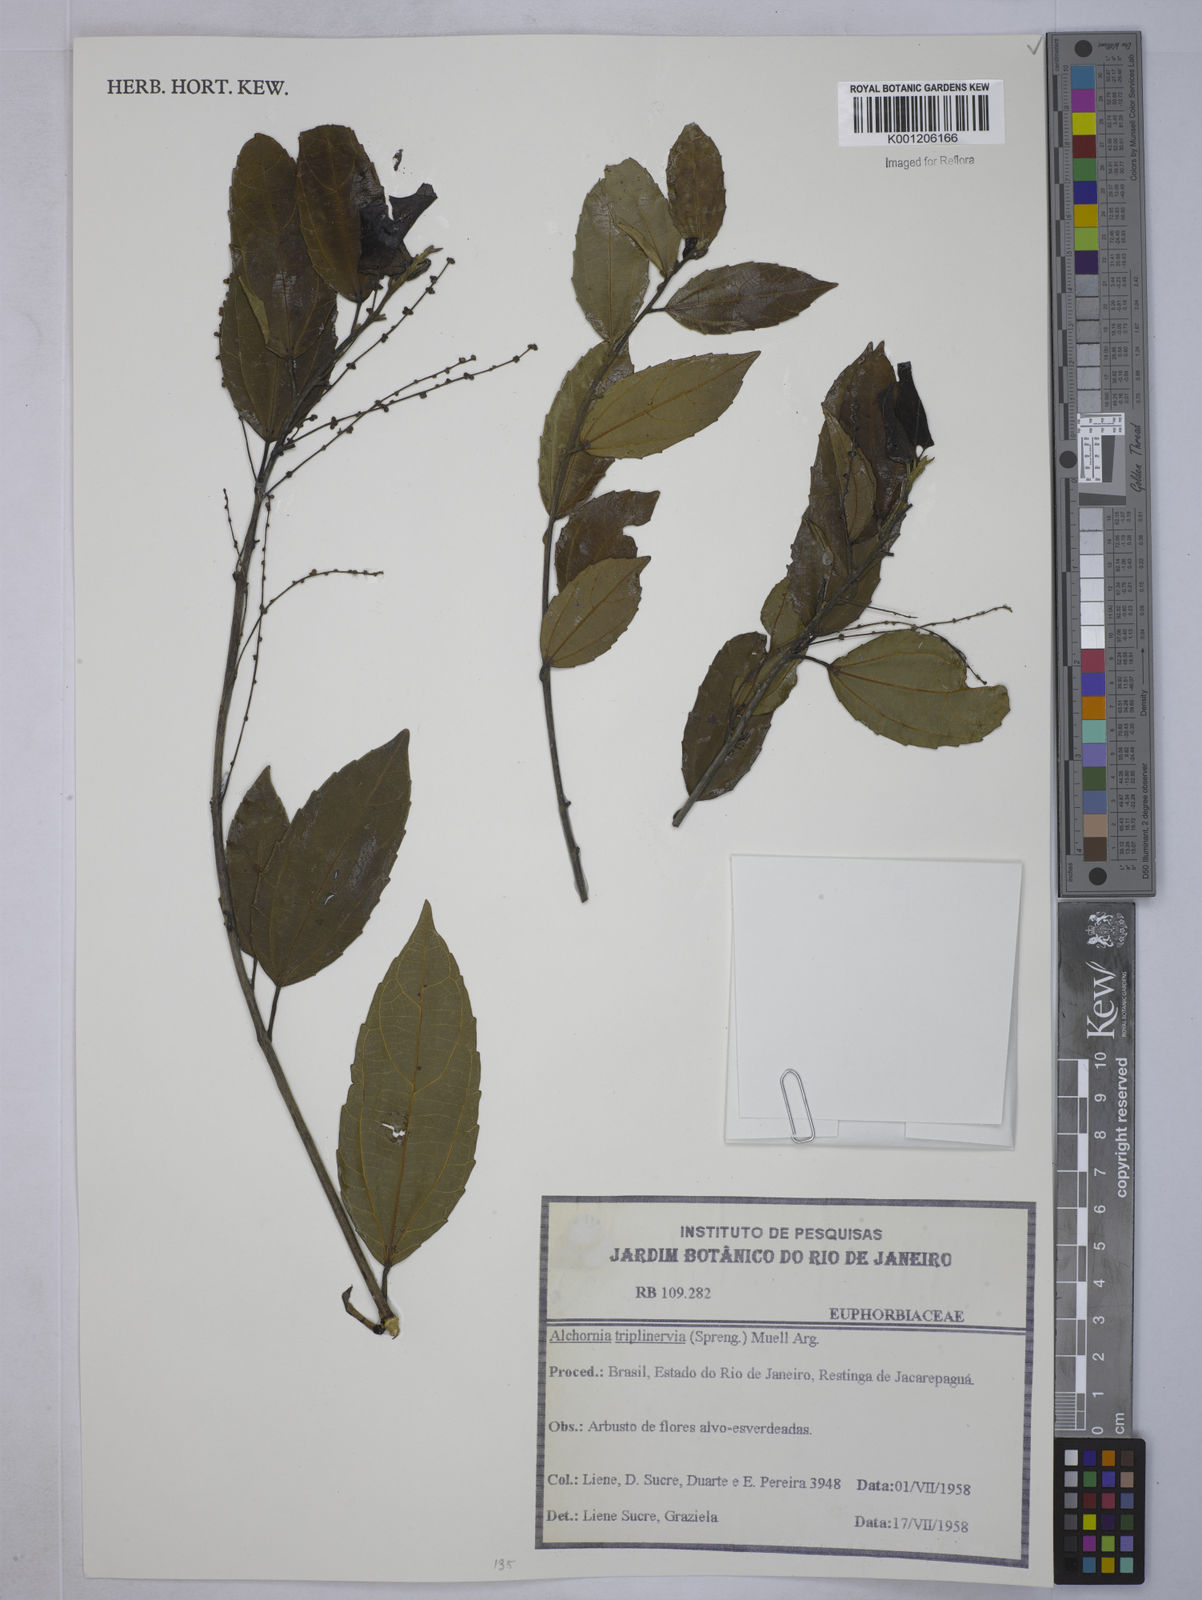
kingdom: Plantae
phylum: Tracheophyta
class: Magnoliopsida
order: Malpighiales
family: Euphorbiaceae
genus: Alchornea
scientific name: Alchornea
